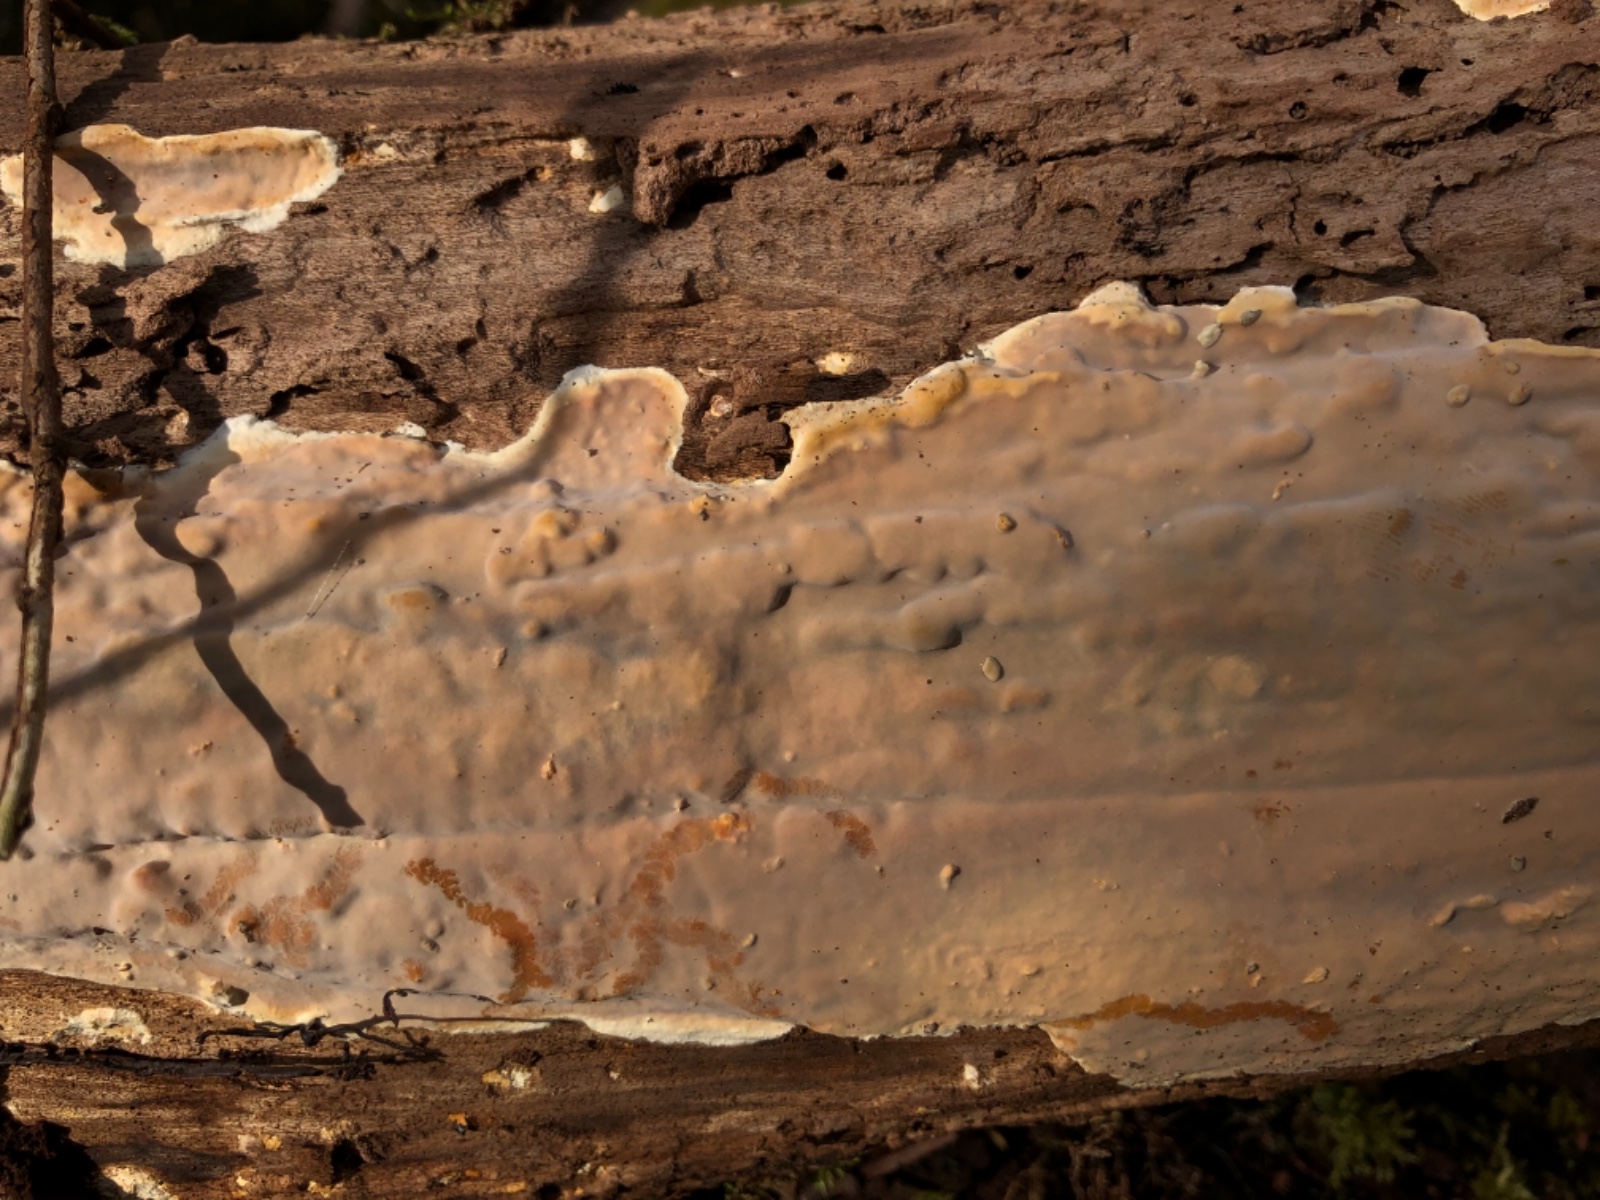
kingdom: Fungi
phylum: Basidiomycota
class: Agaricomycetes
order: Russulales
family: Peniophoraceae
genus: Scytinostroma
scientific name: Scytinostroma hemidichophyticum
